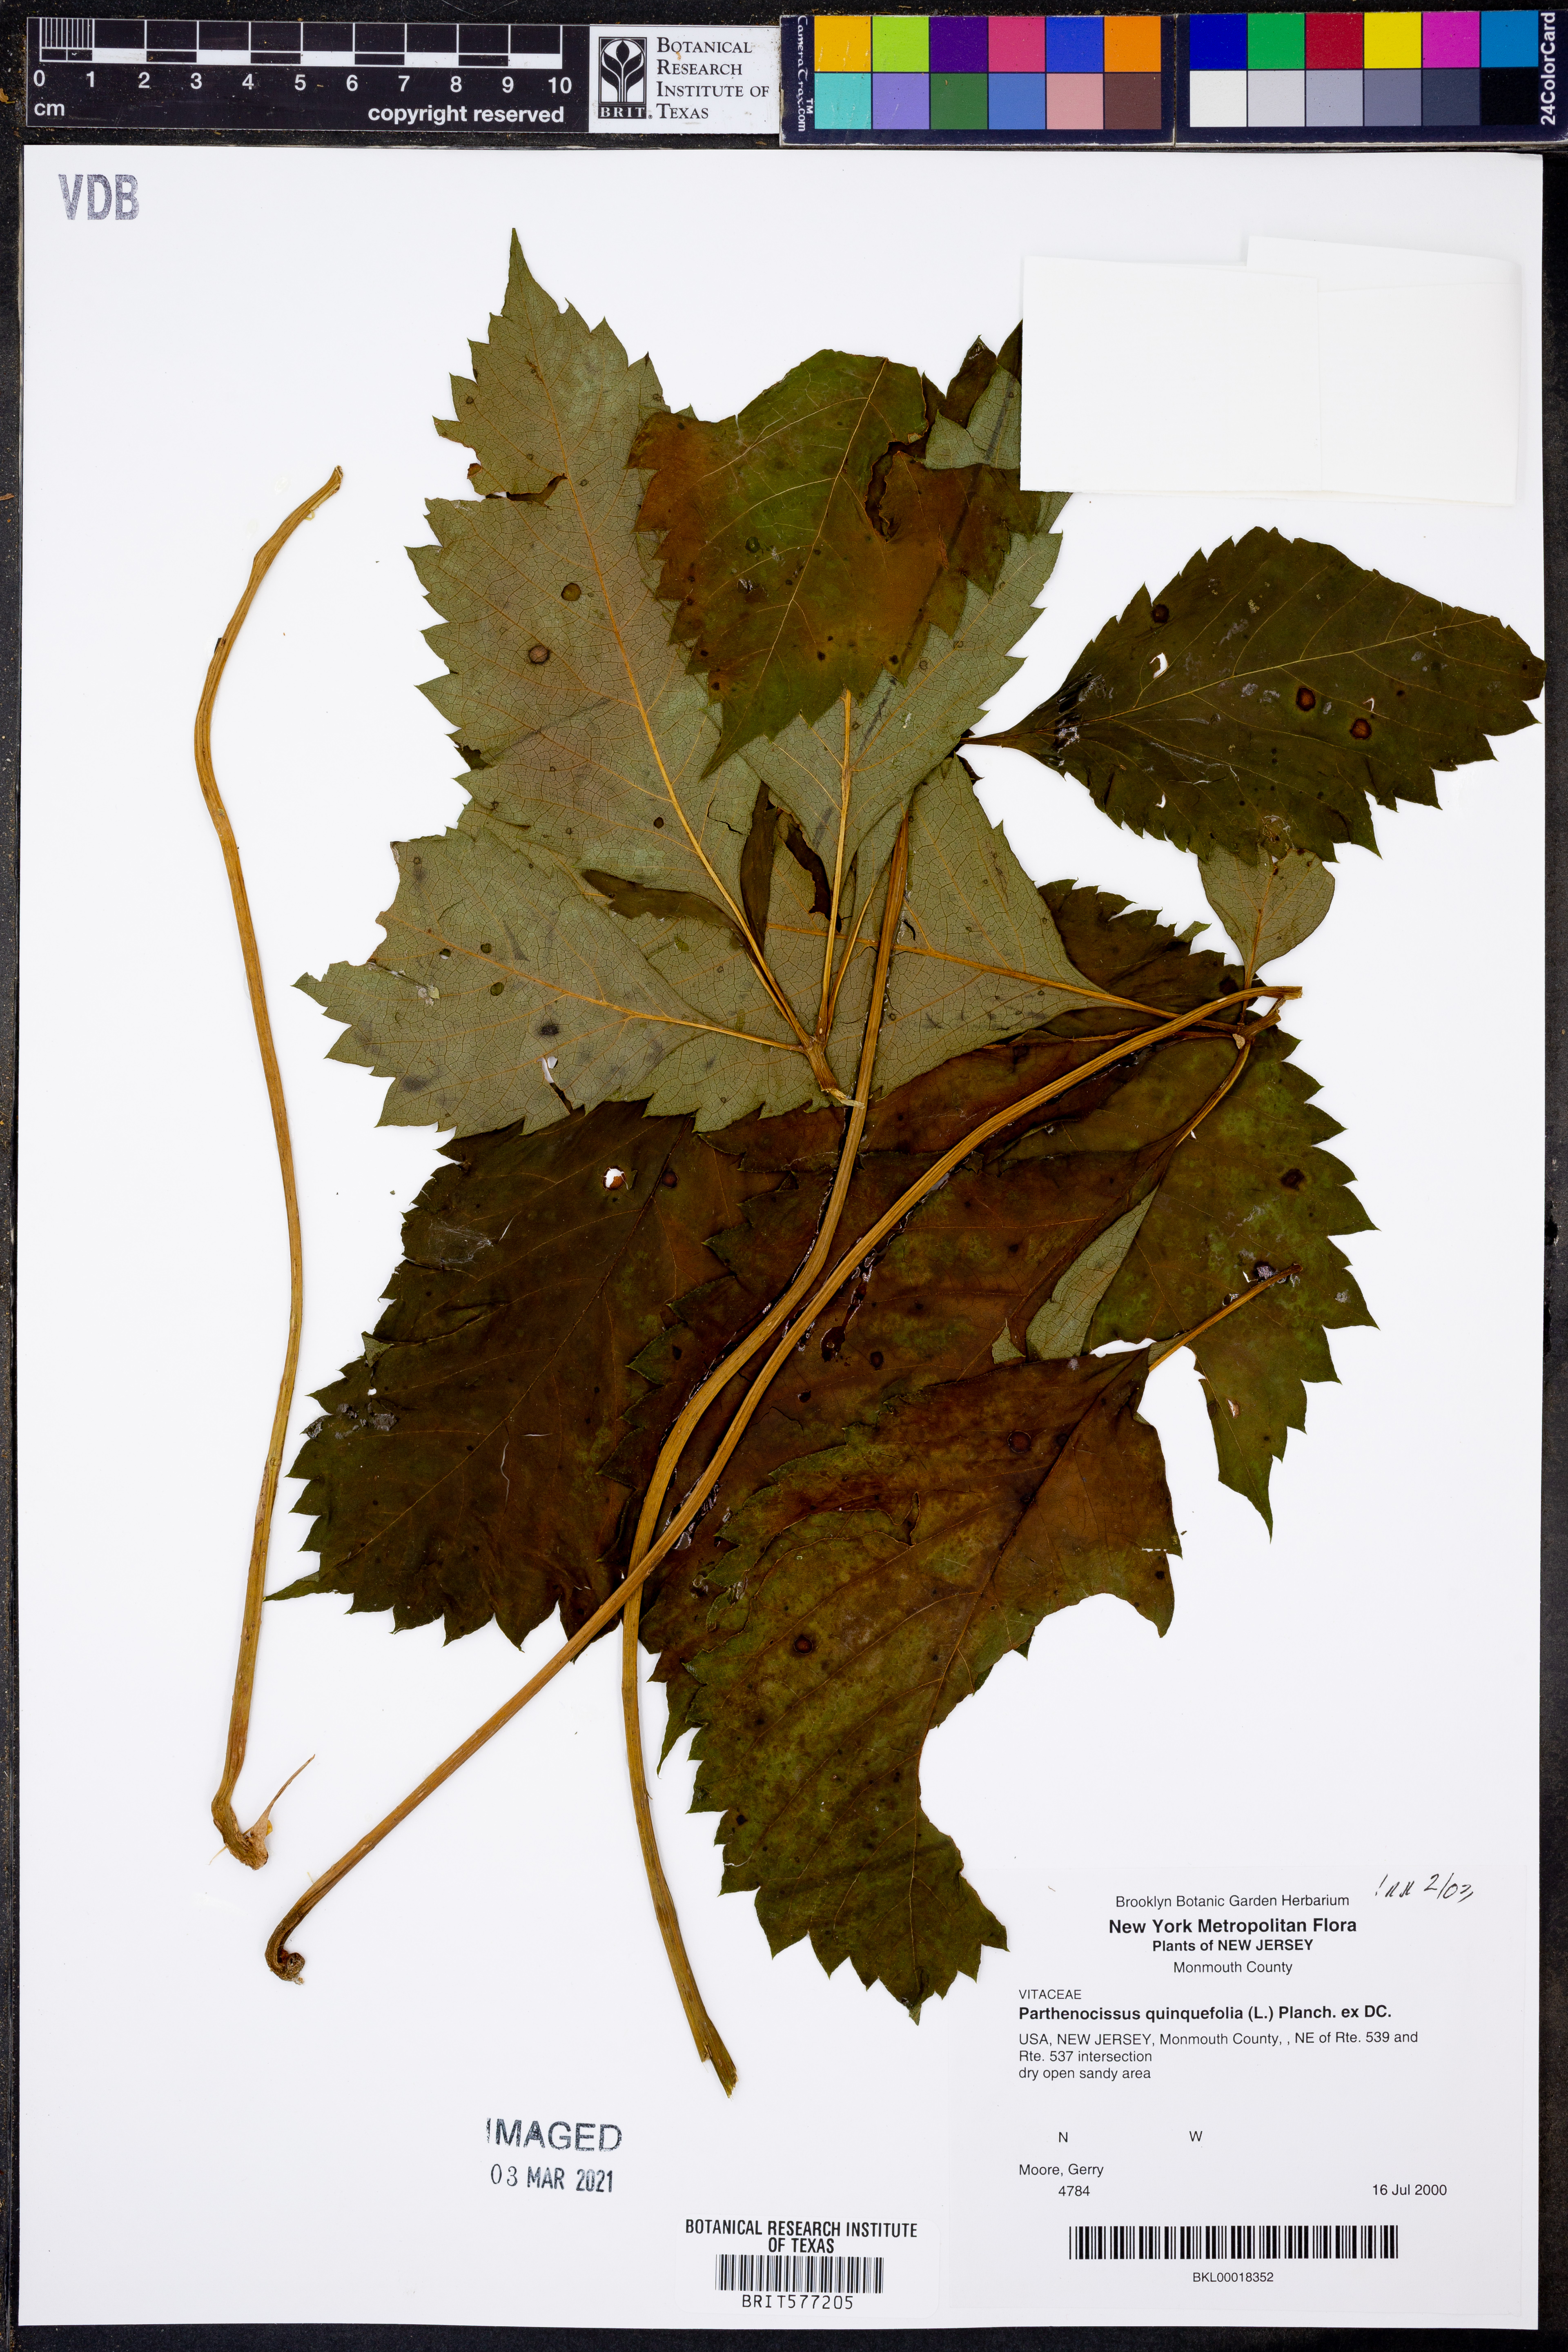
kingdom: Plantae
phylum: Tracheophyta
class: Magnoliopsida
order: Vitales
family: Vitaceae
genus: Parthenocissus
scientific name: Parthenocissus quinquefolia
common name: Virginia-creeper
